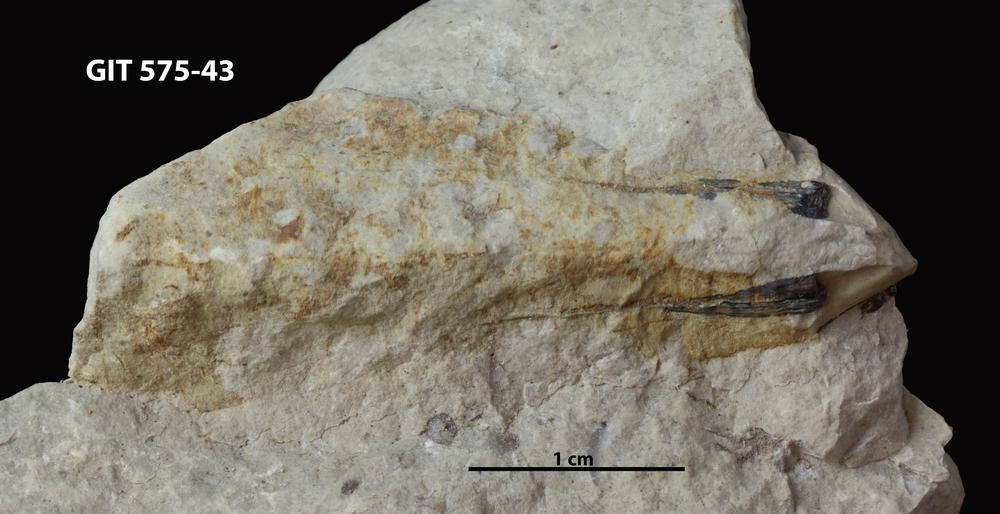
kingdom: Animalia
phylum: Cnidaria
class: Scyphozoa
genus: Palaenigma
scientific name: Palaenigma
